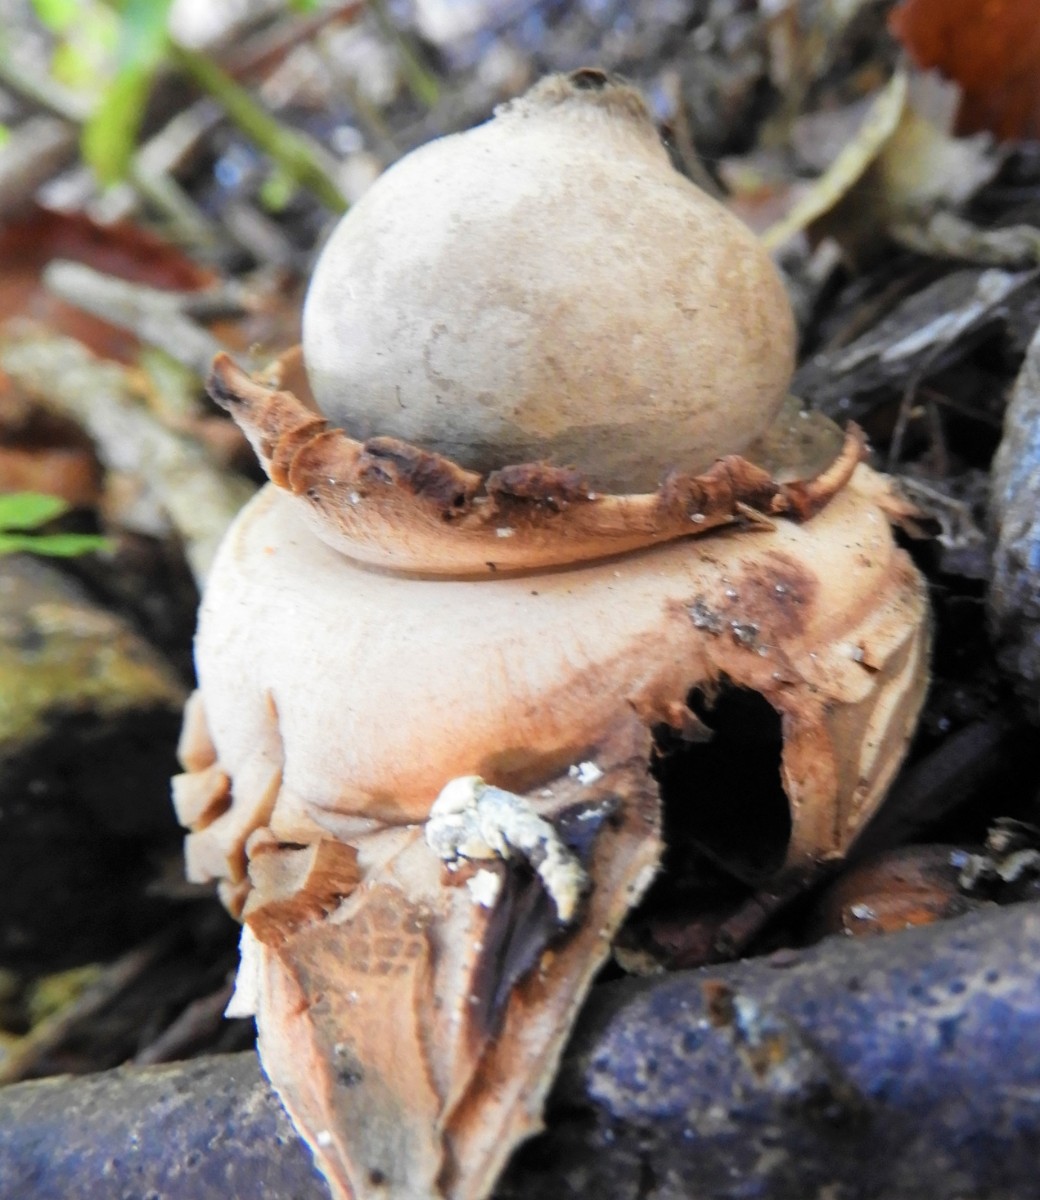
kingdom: Fungi
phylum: Basidiomycota
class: Agaricomycetes
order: Geastrales
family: Geastraceae
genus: Geastrum
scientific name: Geastrum michelianum
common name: kødet stjernebold
